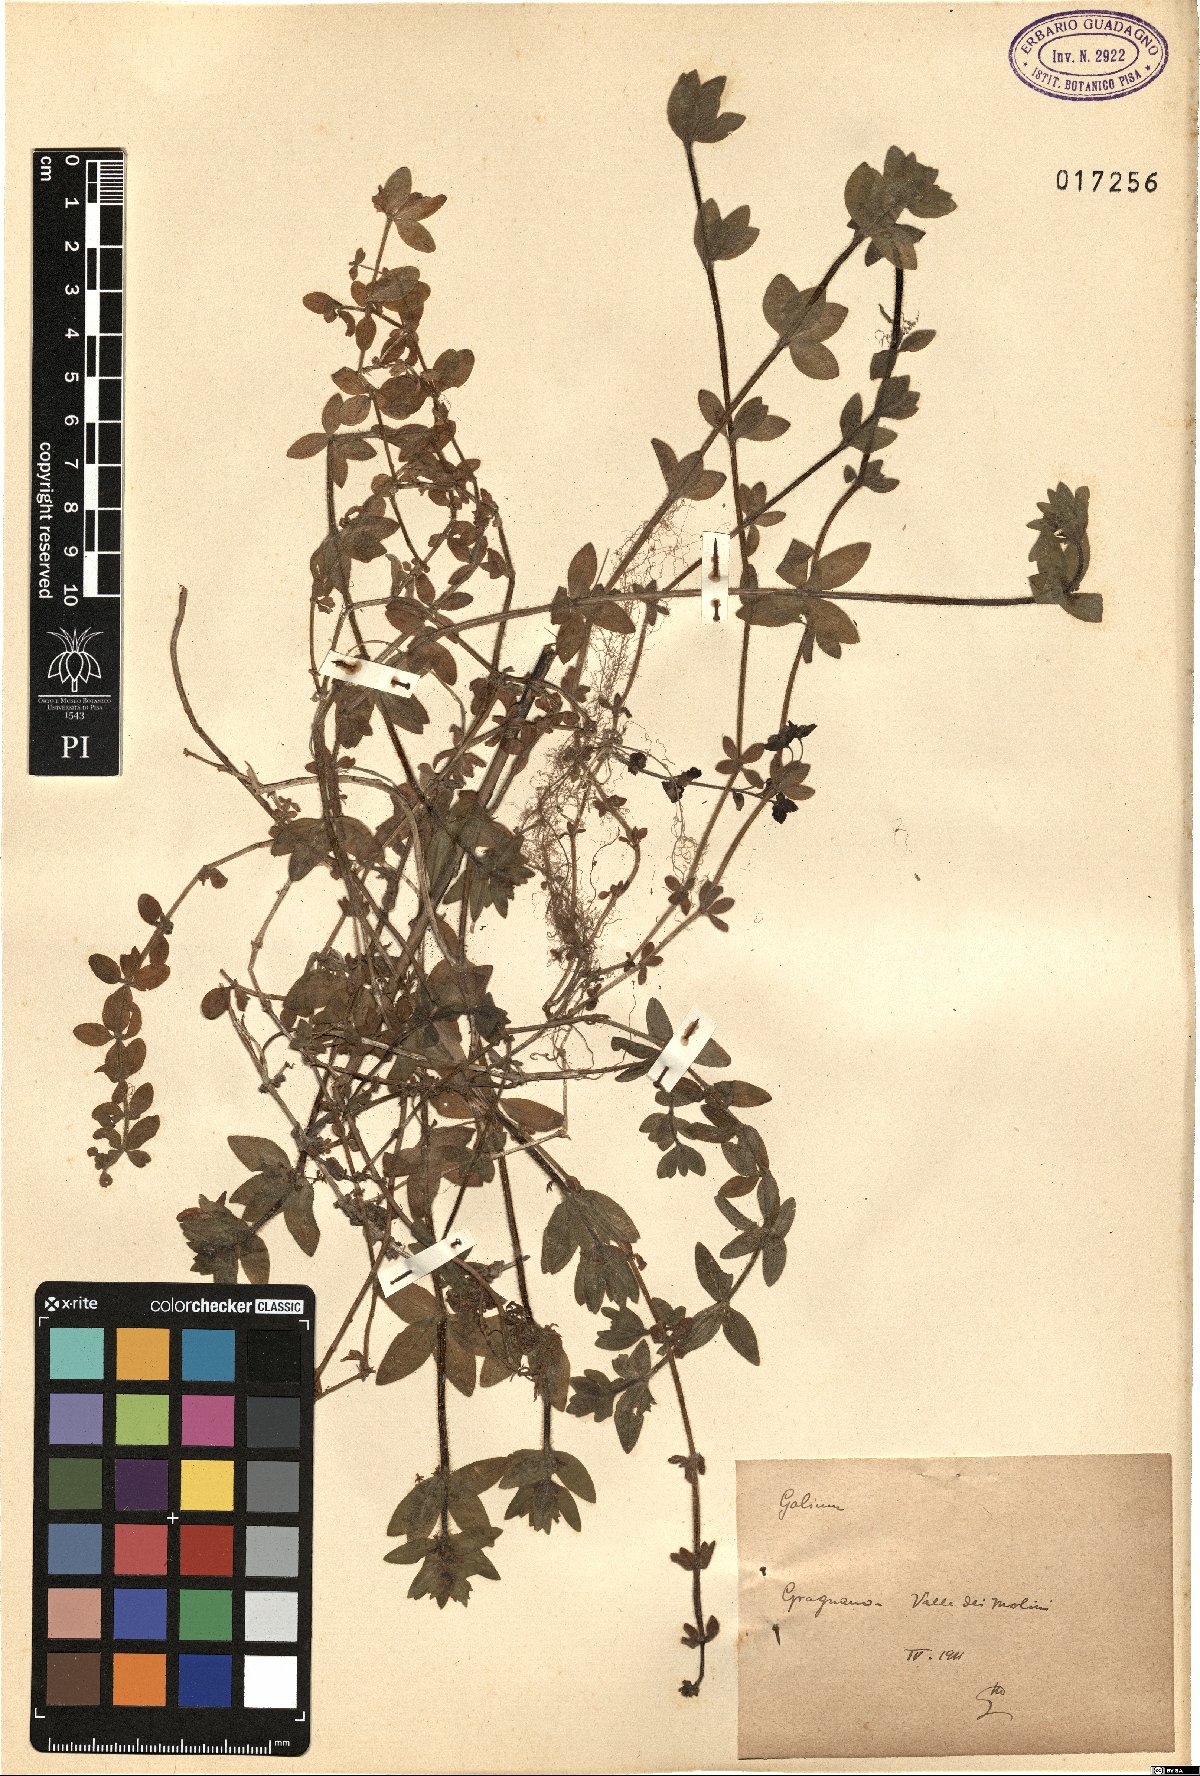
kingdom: Plantae
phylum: Tracheophyta
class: Magnoliopsida
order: Gentianales
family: Rubiaceae
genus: Galium
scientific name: Galium
